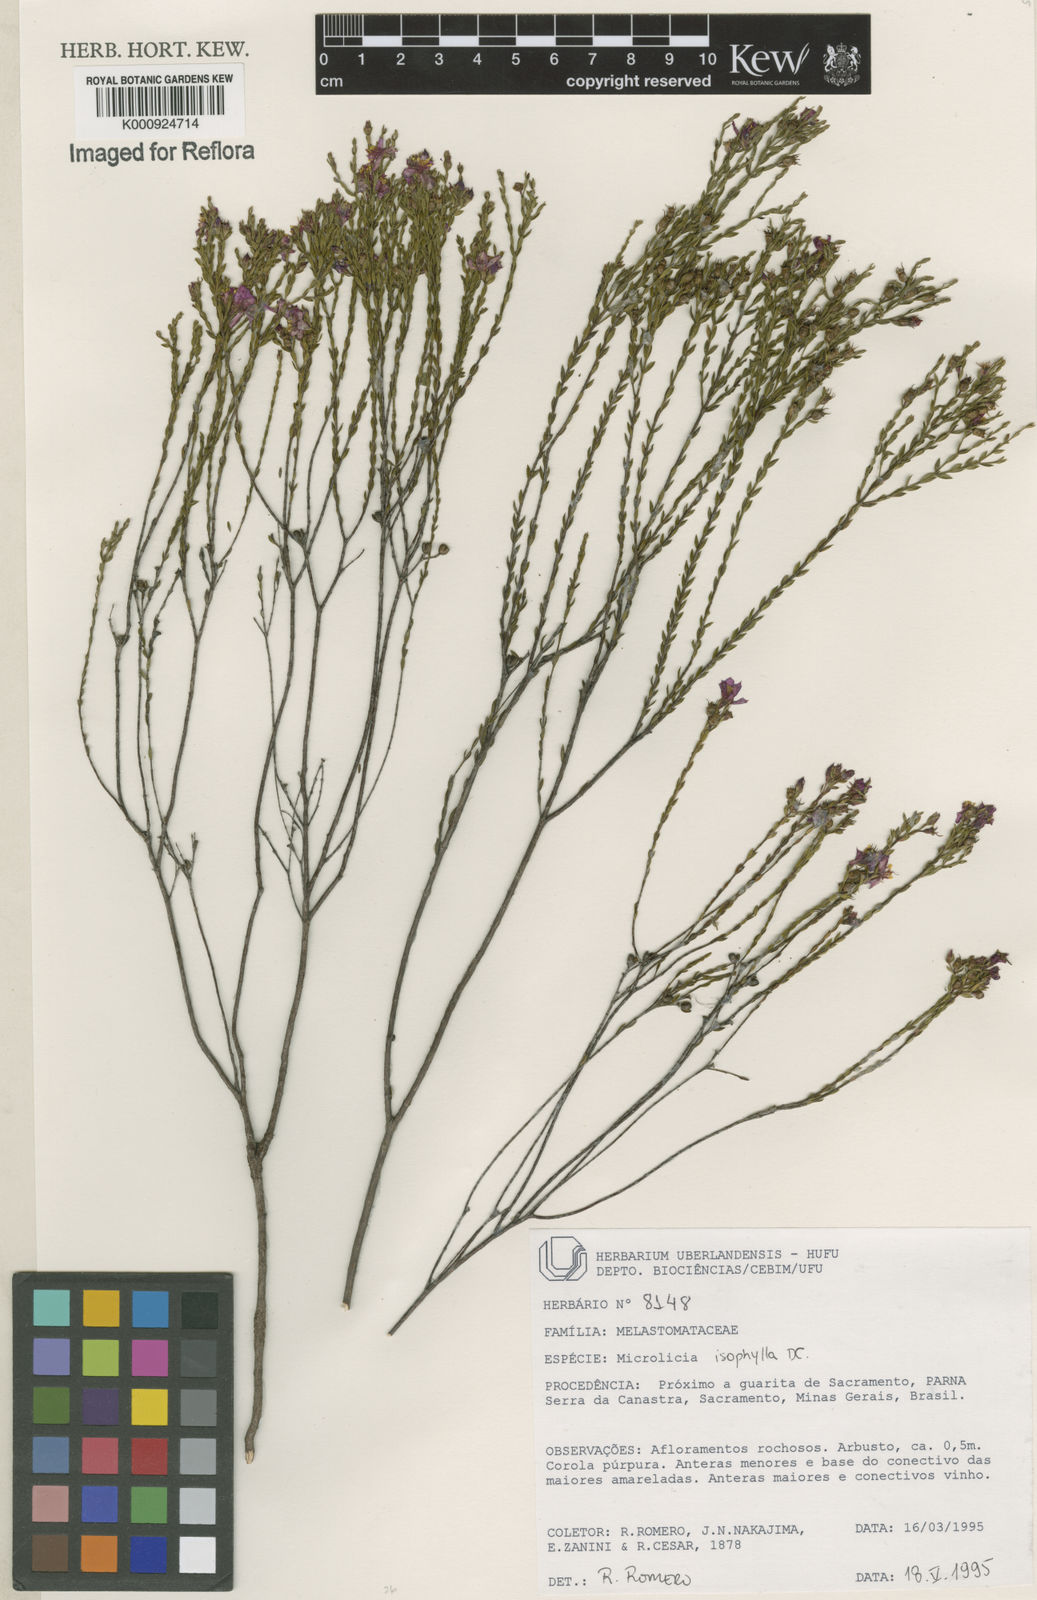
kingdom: Plantae
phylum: Tracheophyta
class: Magnoliopsida
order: Myrtales
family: Melastomataceae
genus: Microlicia
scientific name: Microlicia isophylla
